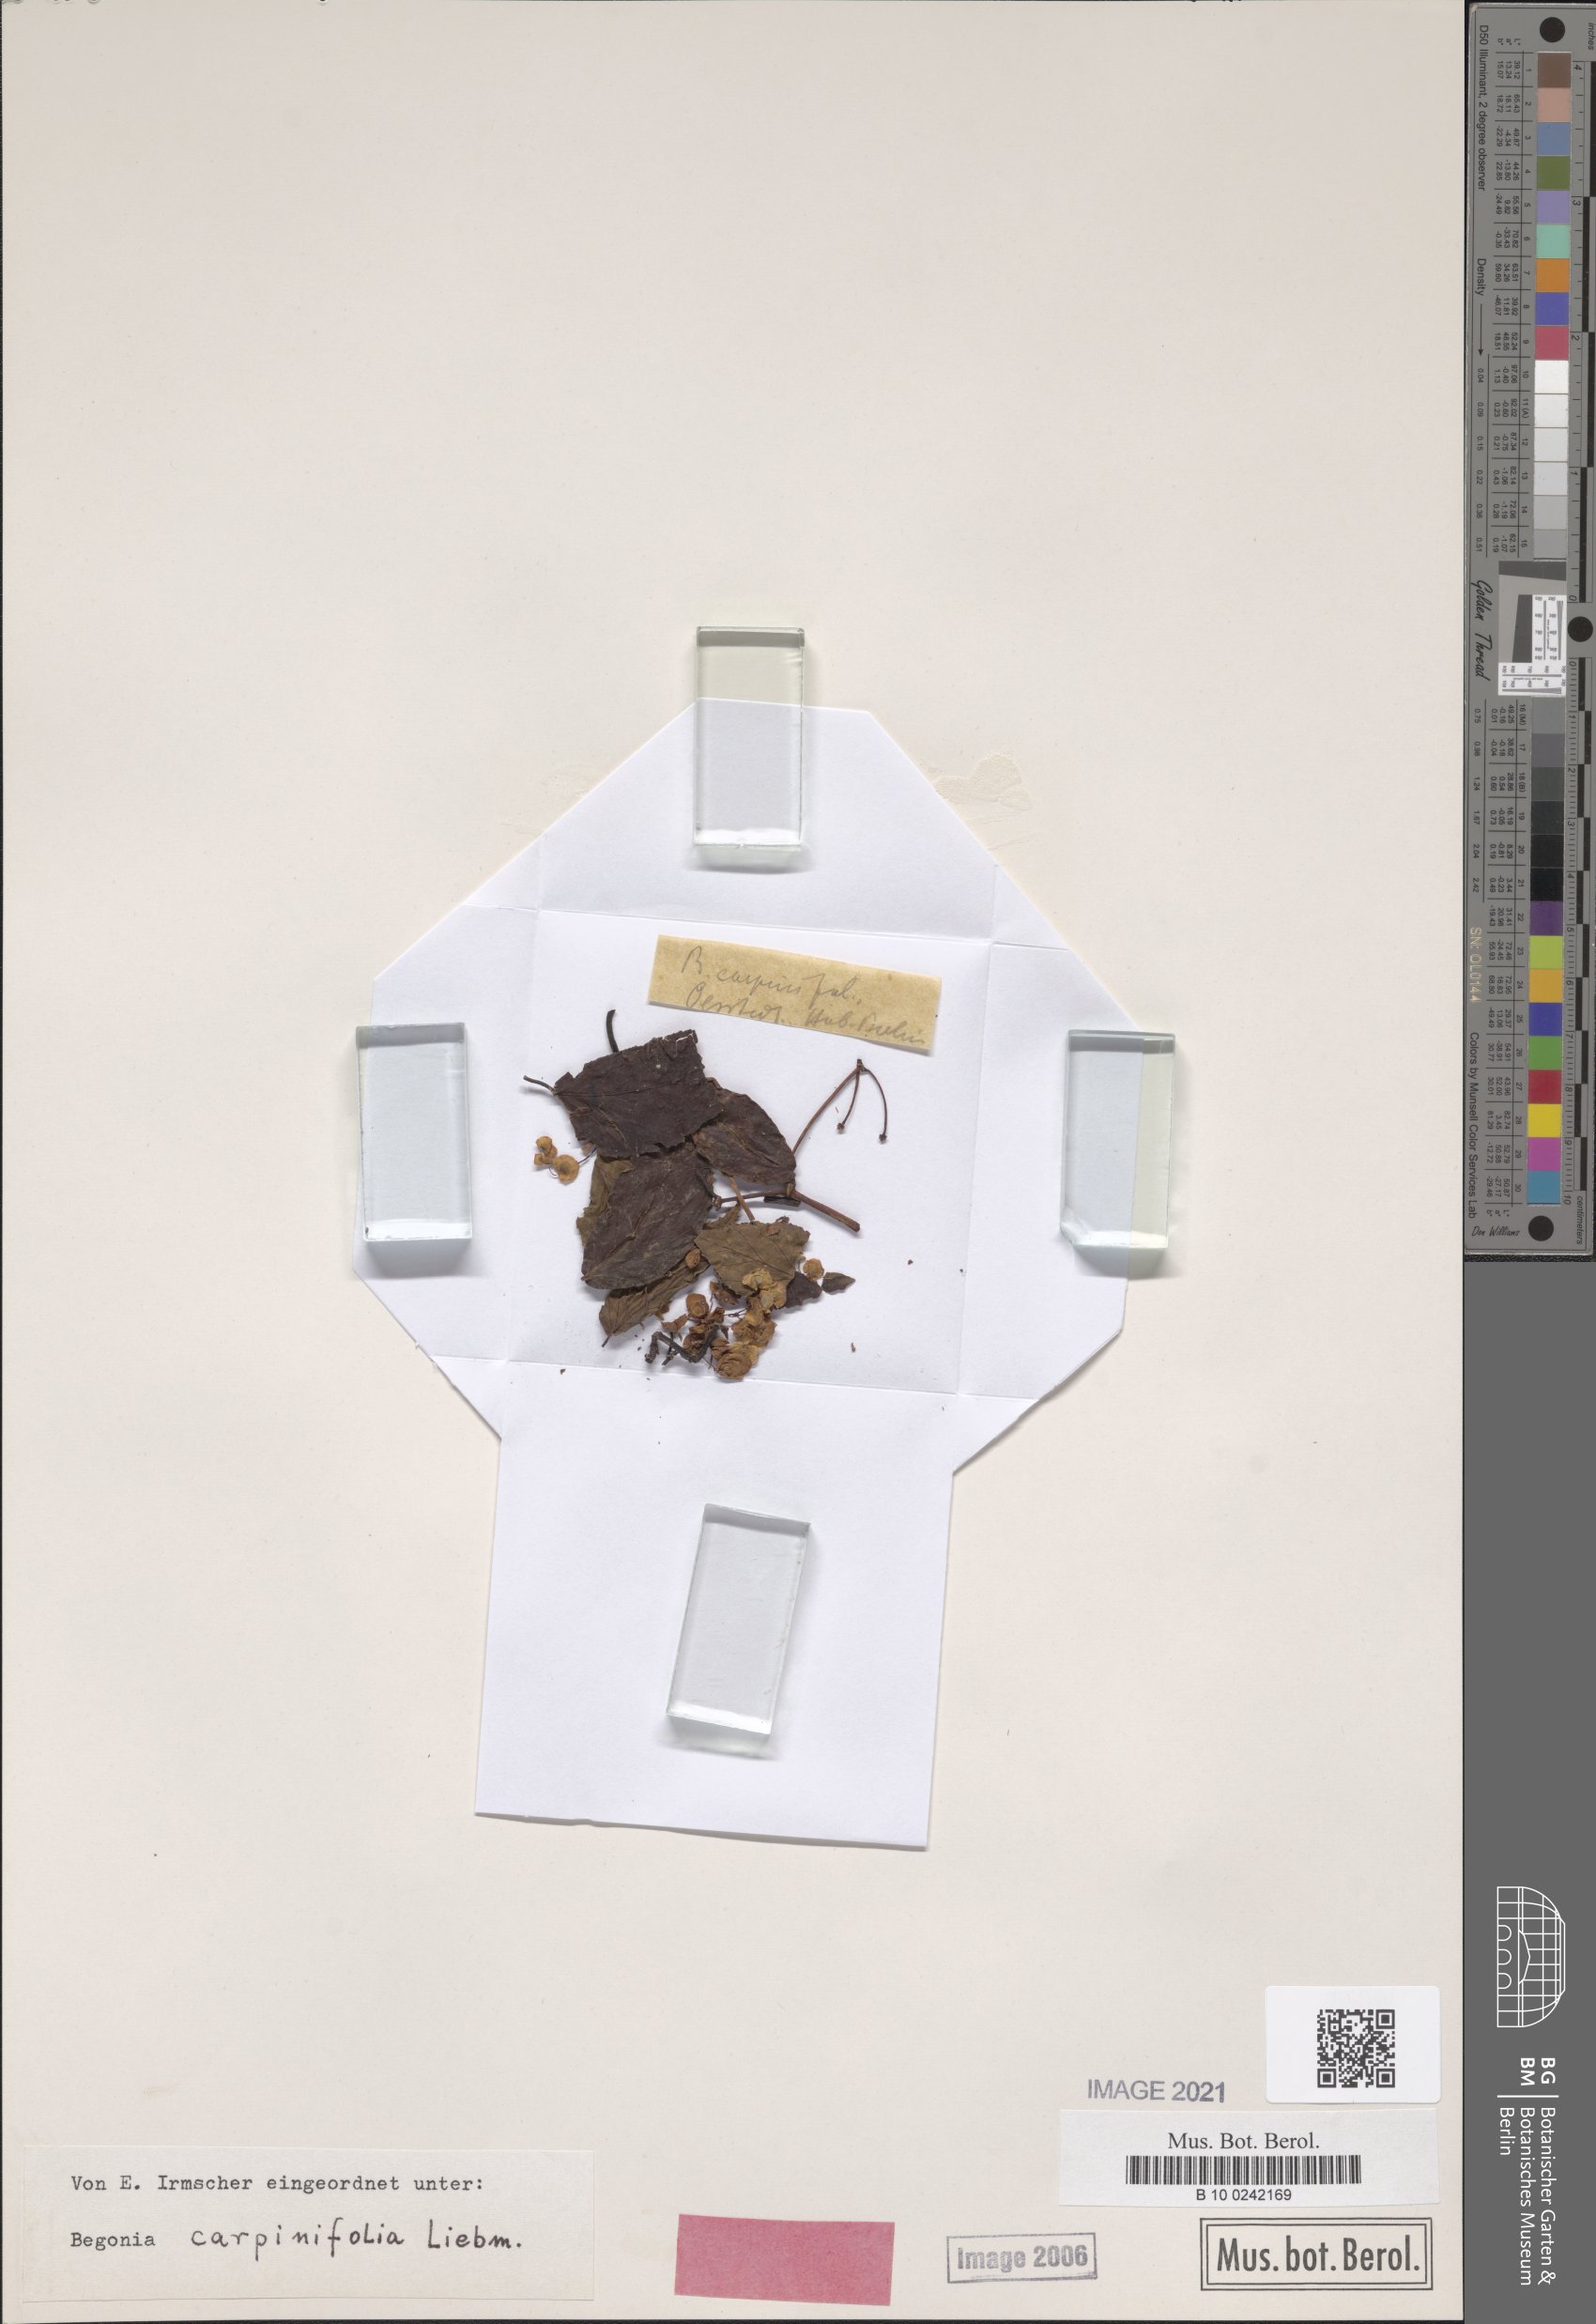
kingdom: Plantae
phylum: Tracheophyta
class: Magnoliopsida
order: Cucurbitales
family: Begoniaceae
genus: Begonia
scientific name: Begonia carpinifolia
